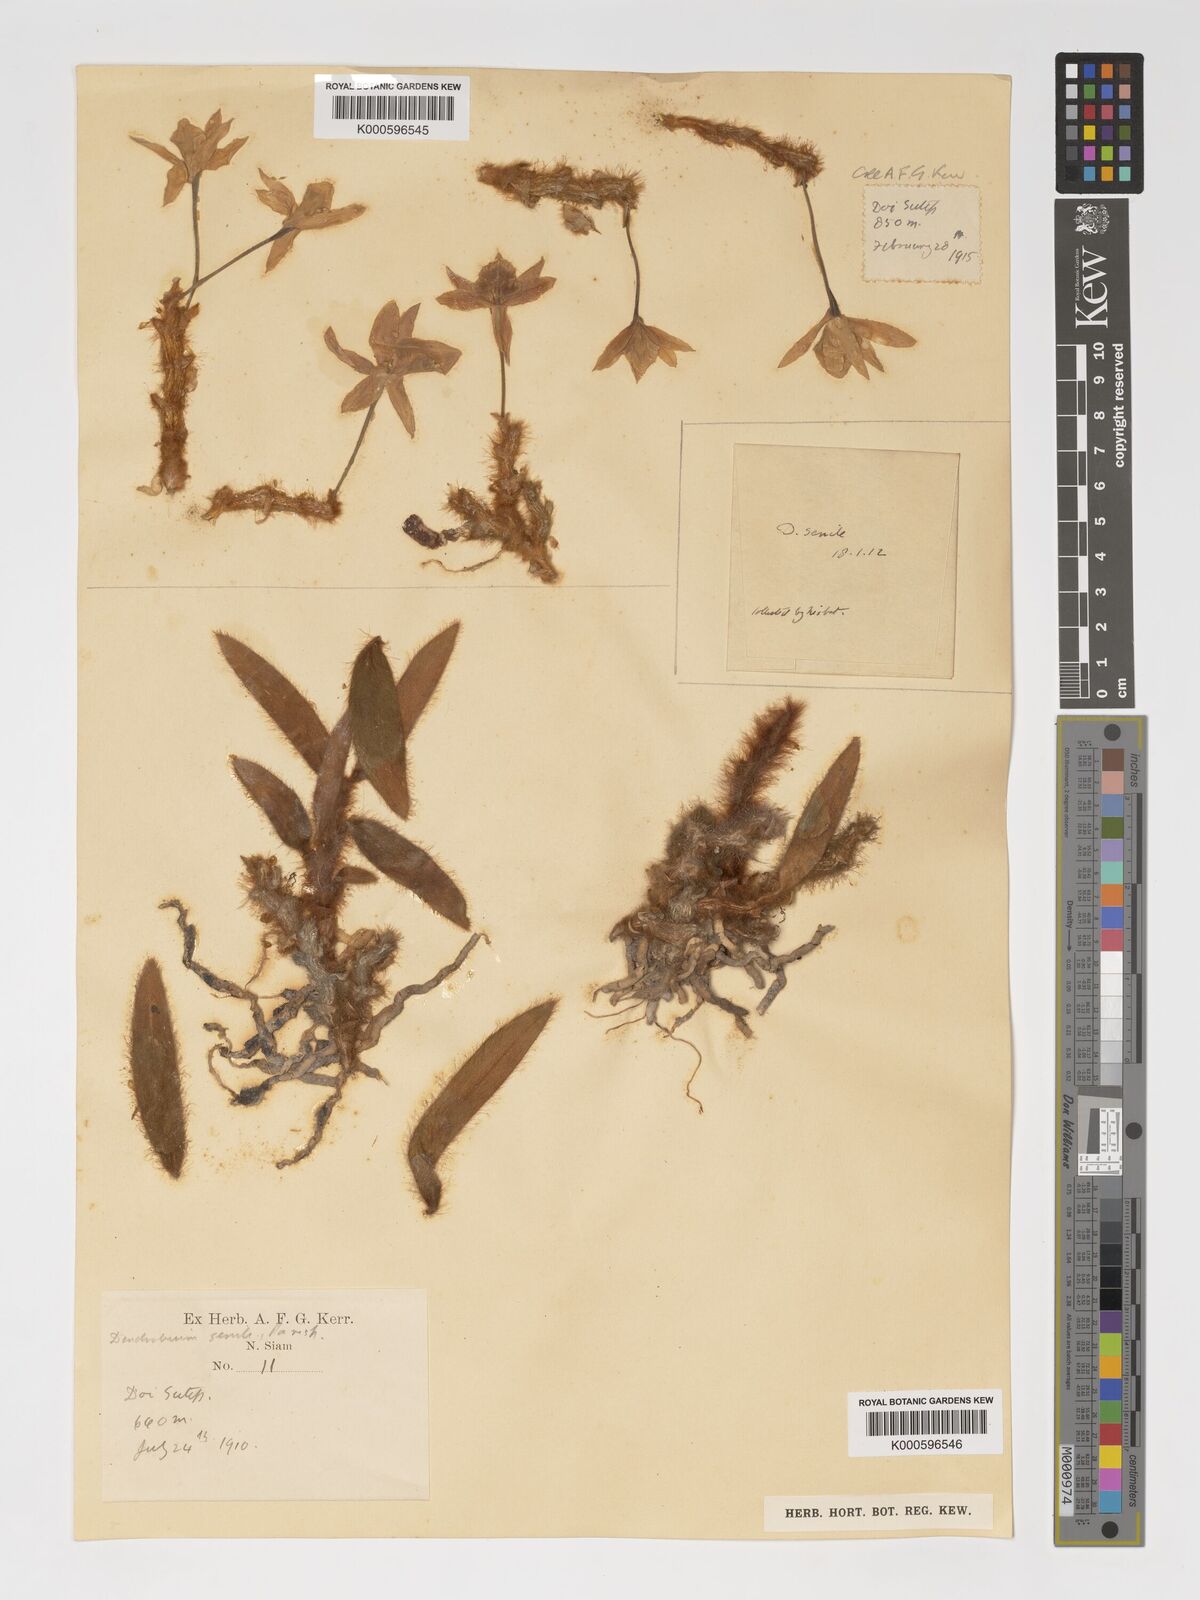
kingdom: Plantae
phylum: Tracheophyta
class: Liliopsida
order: Asparagales
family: Orchidaceae
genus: Dendrobium
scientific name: Dendrobium senile
